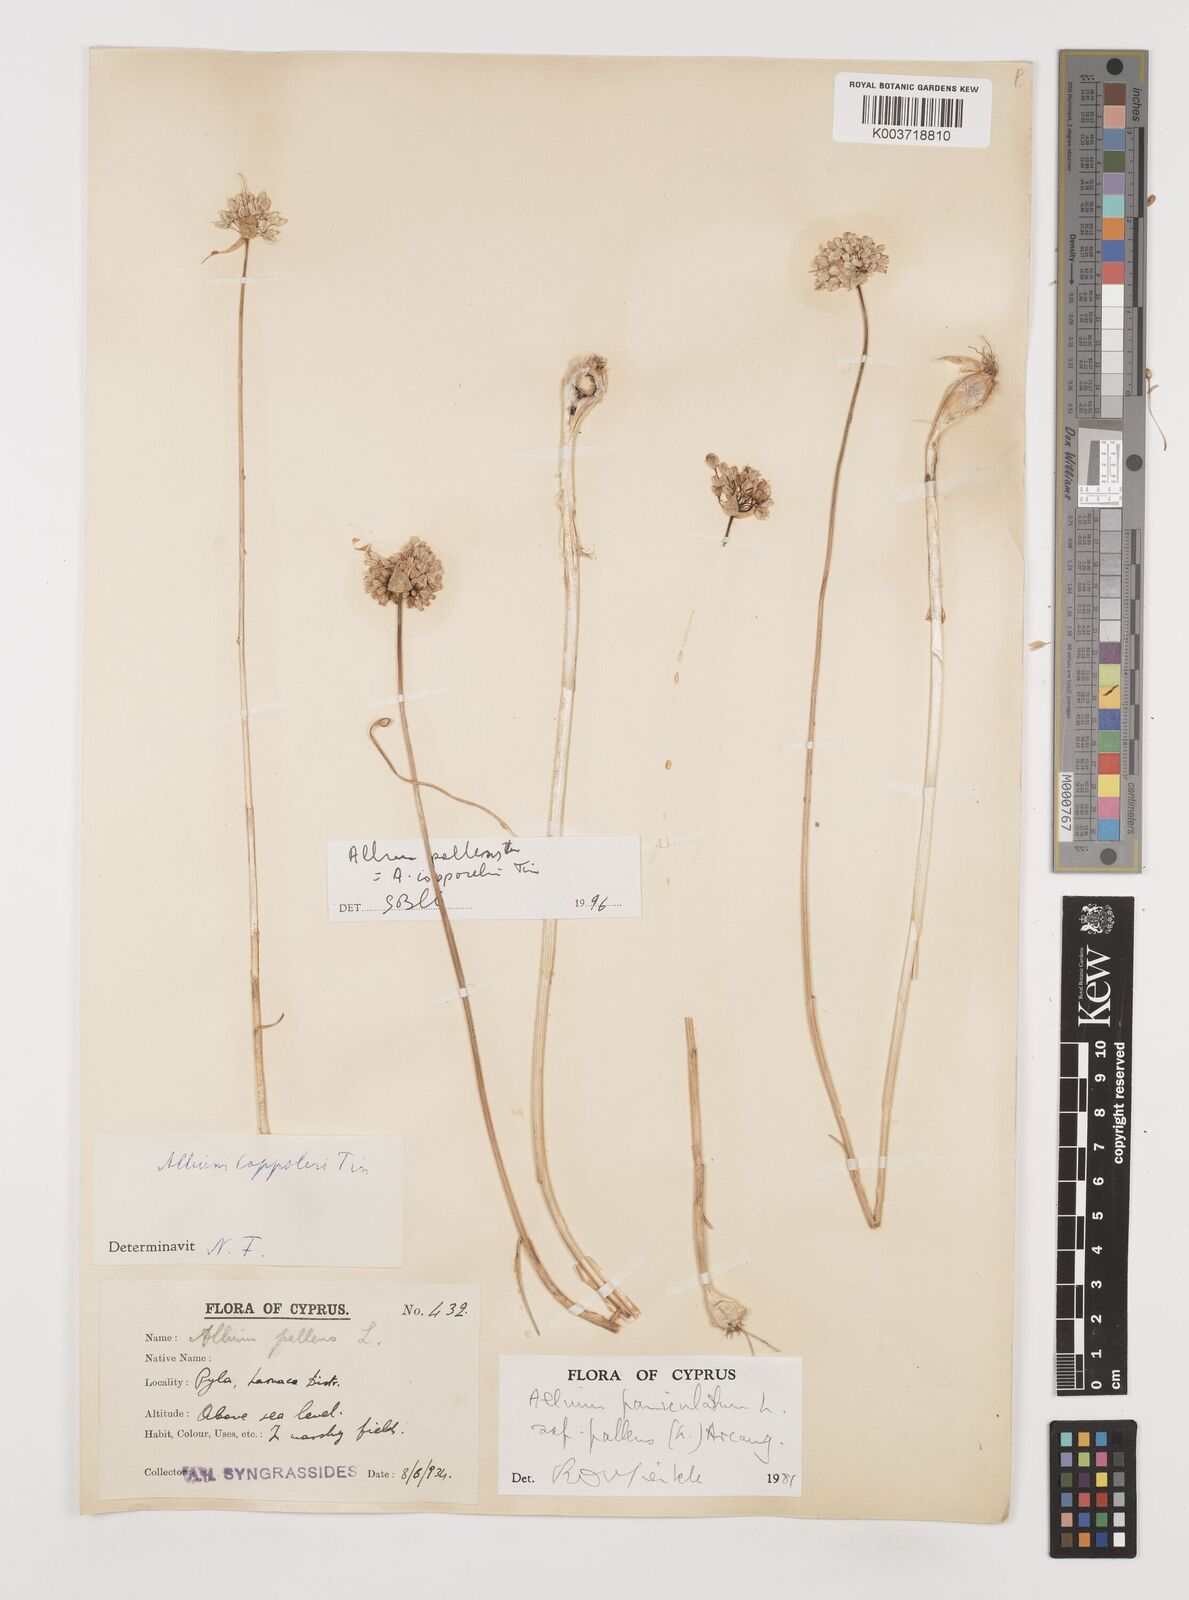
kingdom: Plantae
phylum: Tracheophyta
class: Liliopsida
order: Asparagales
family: Amaryllidaceae
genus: Allium
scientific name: Allium paniculatum
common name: Pale garlic
